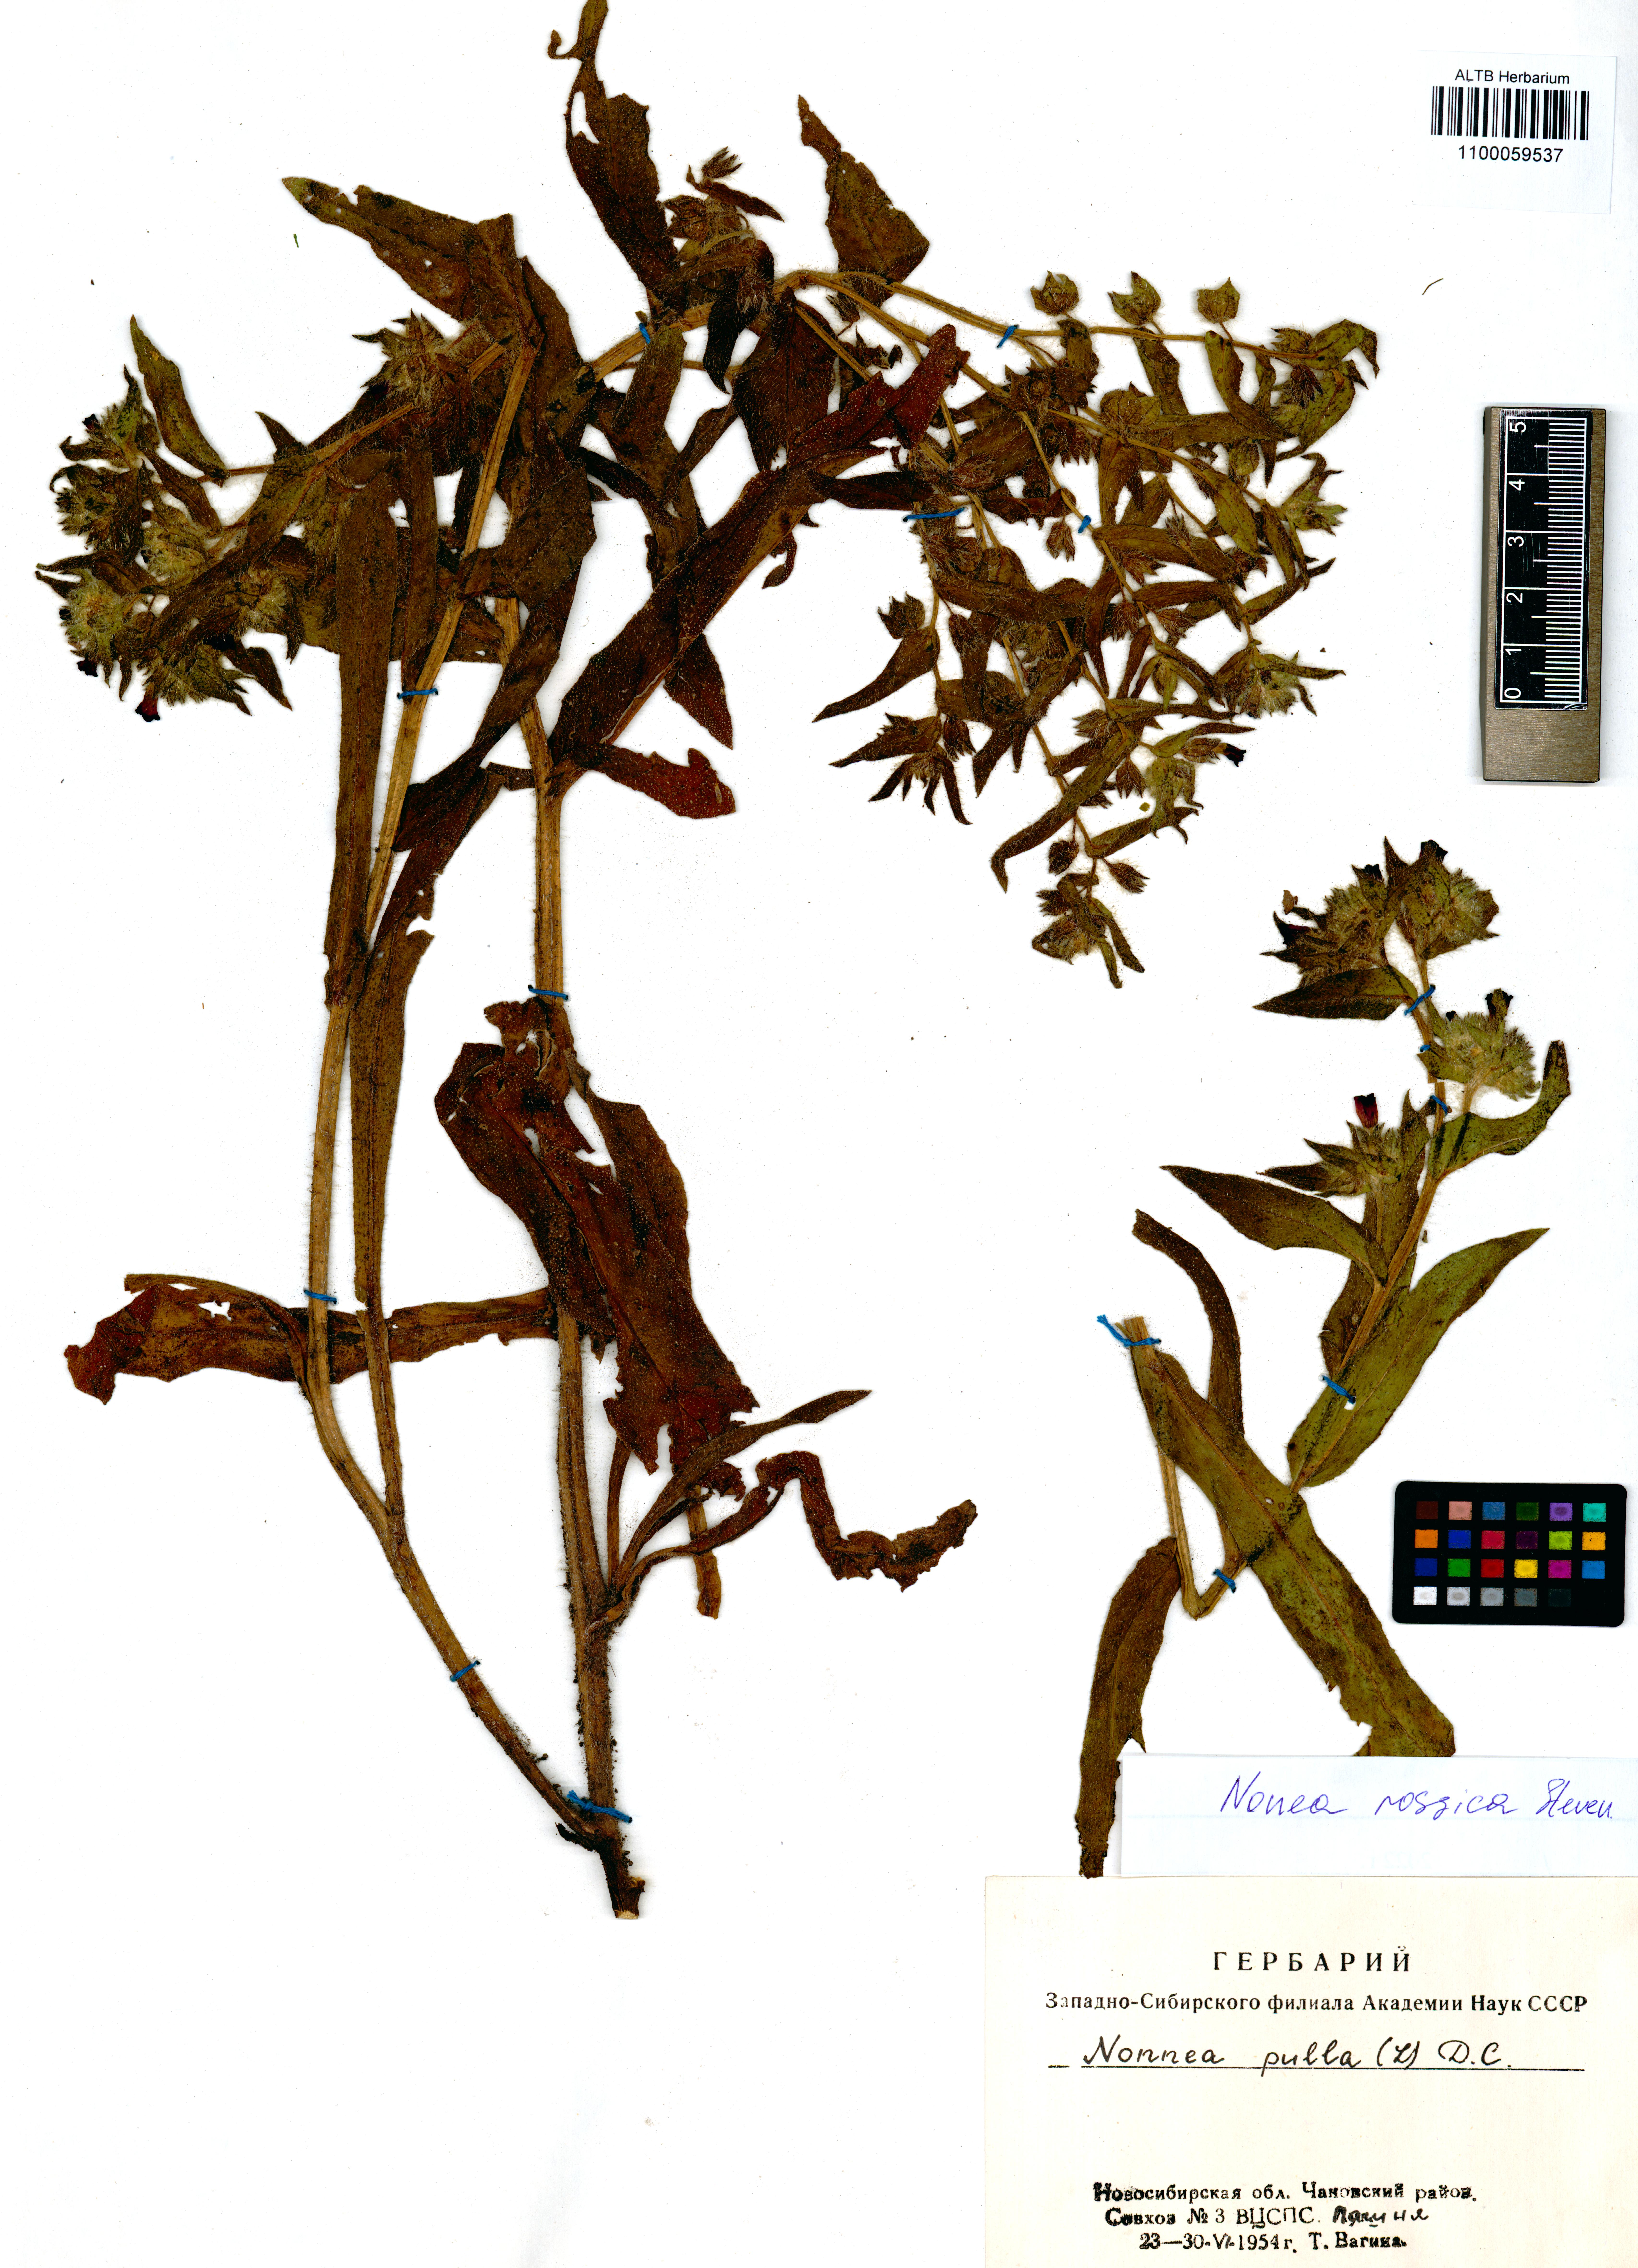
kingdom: Plantae
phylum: Tracheophyta
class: Magnoliopsida
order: Boraginales
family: Boraginaceae
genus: Nonea
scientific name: Nonea pulla
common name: Brown nonea
